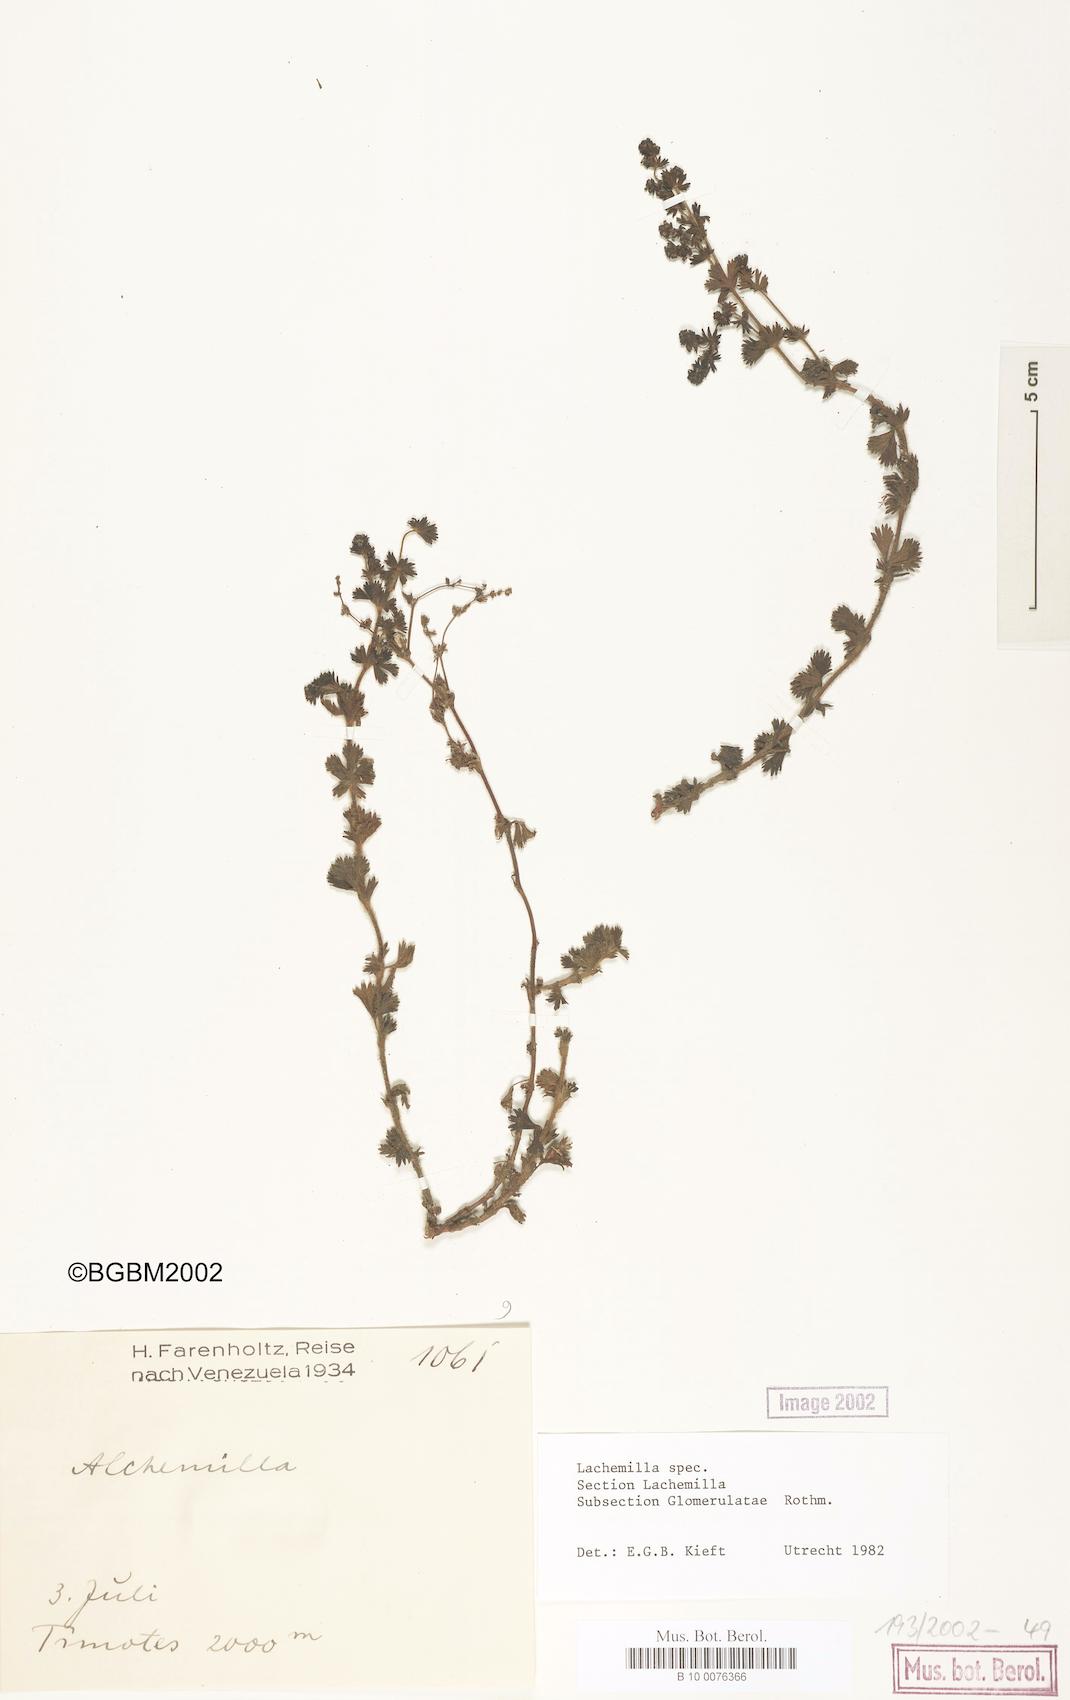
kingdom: Plantae
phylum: Tracheophyta
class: Magnoliopsida
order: Rosales
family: Rosaceae
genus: Lachemilla
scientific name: Lachemilla
